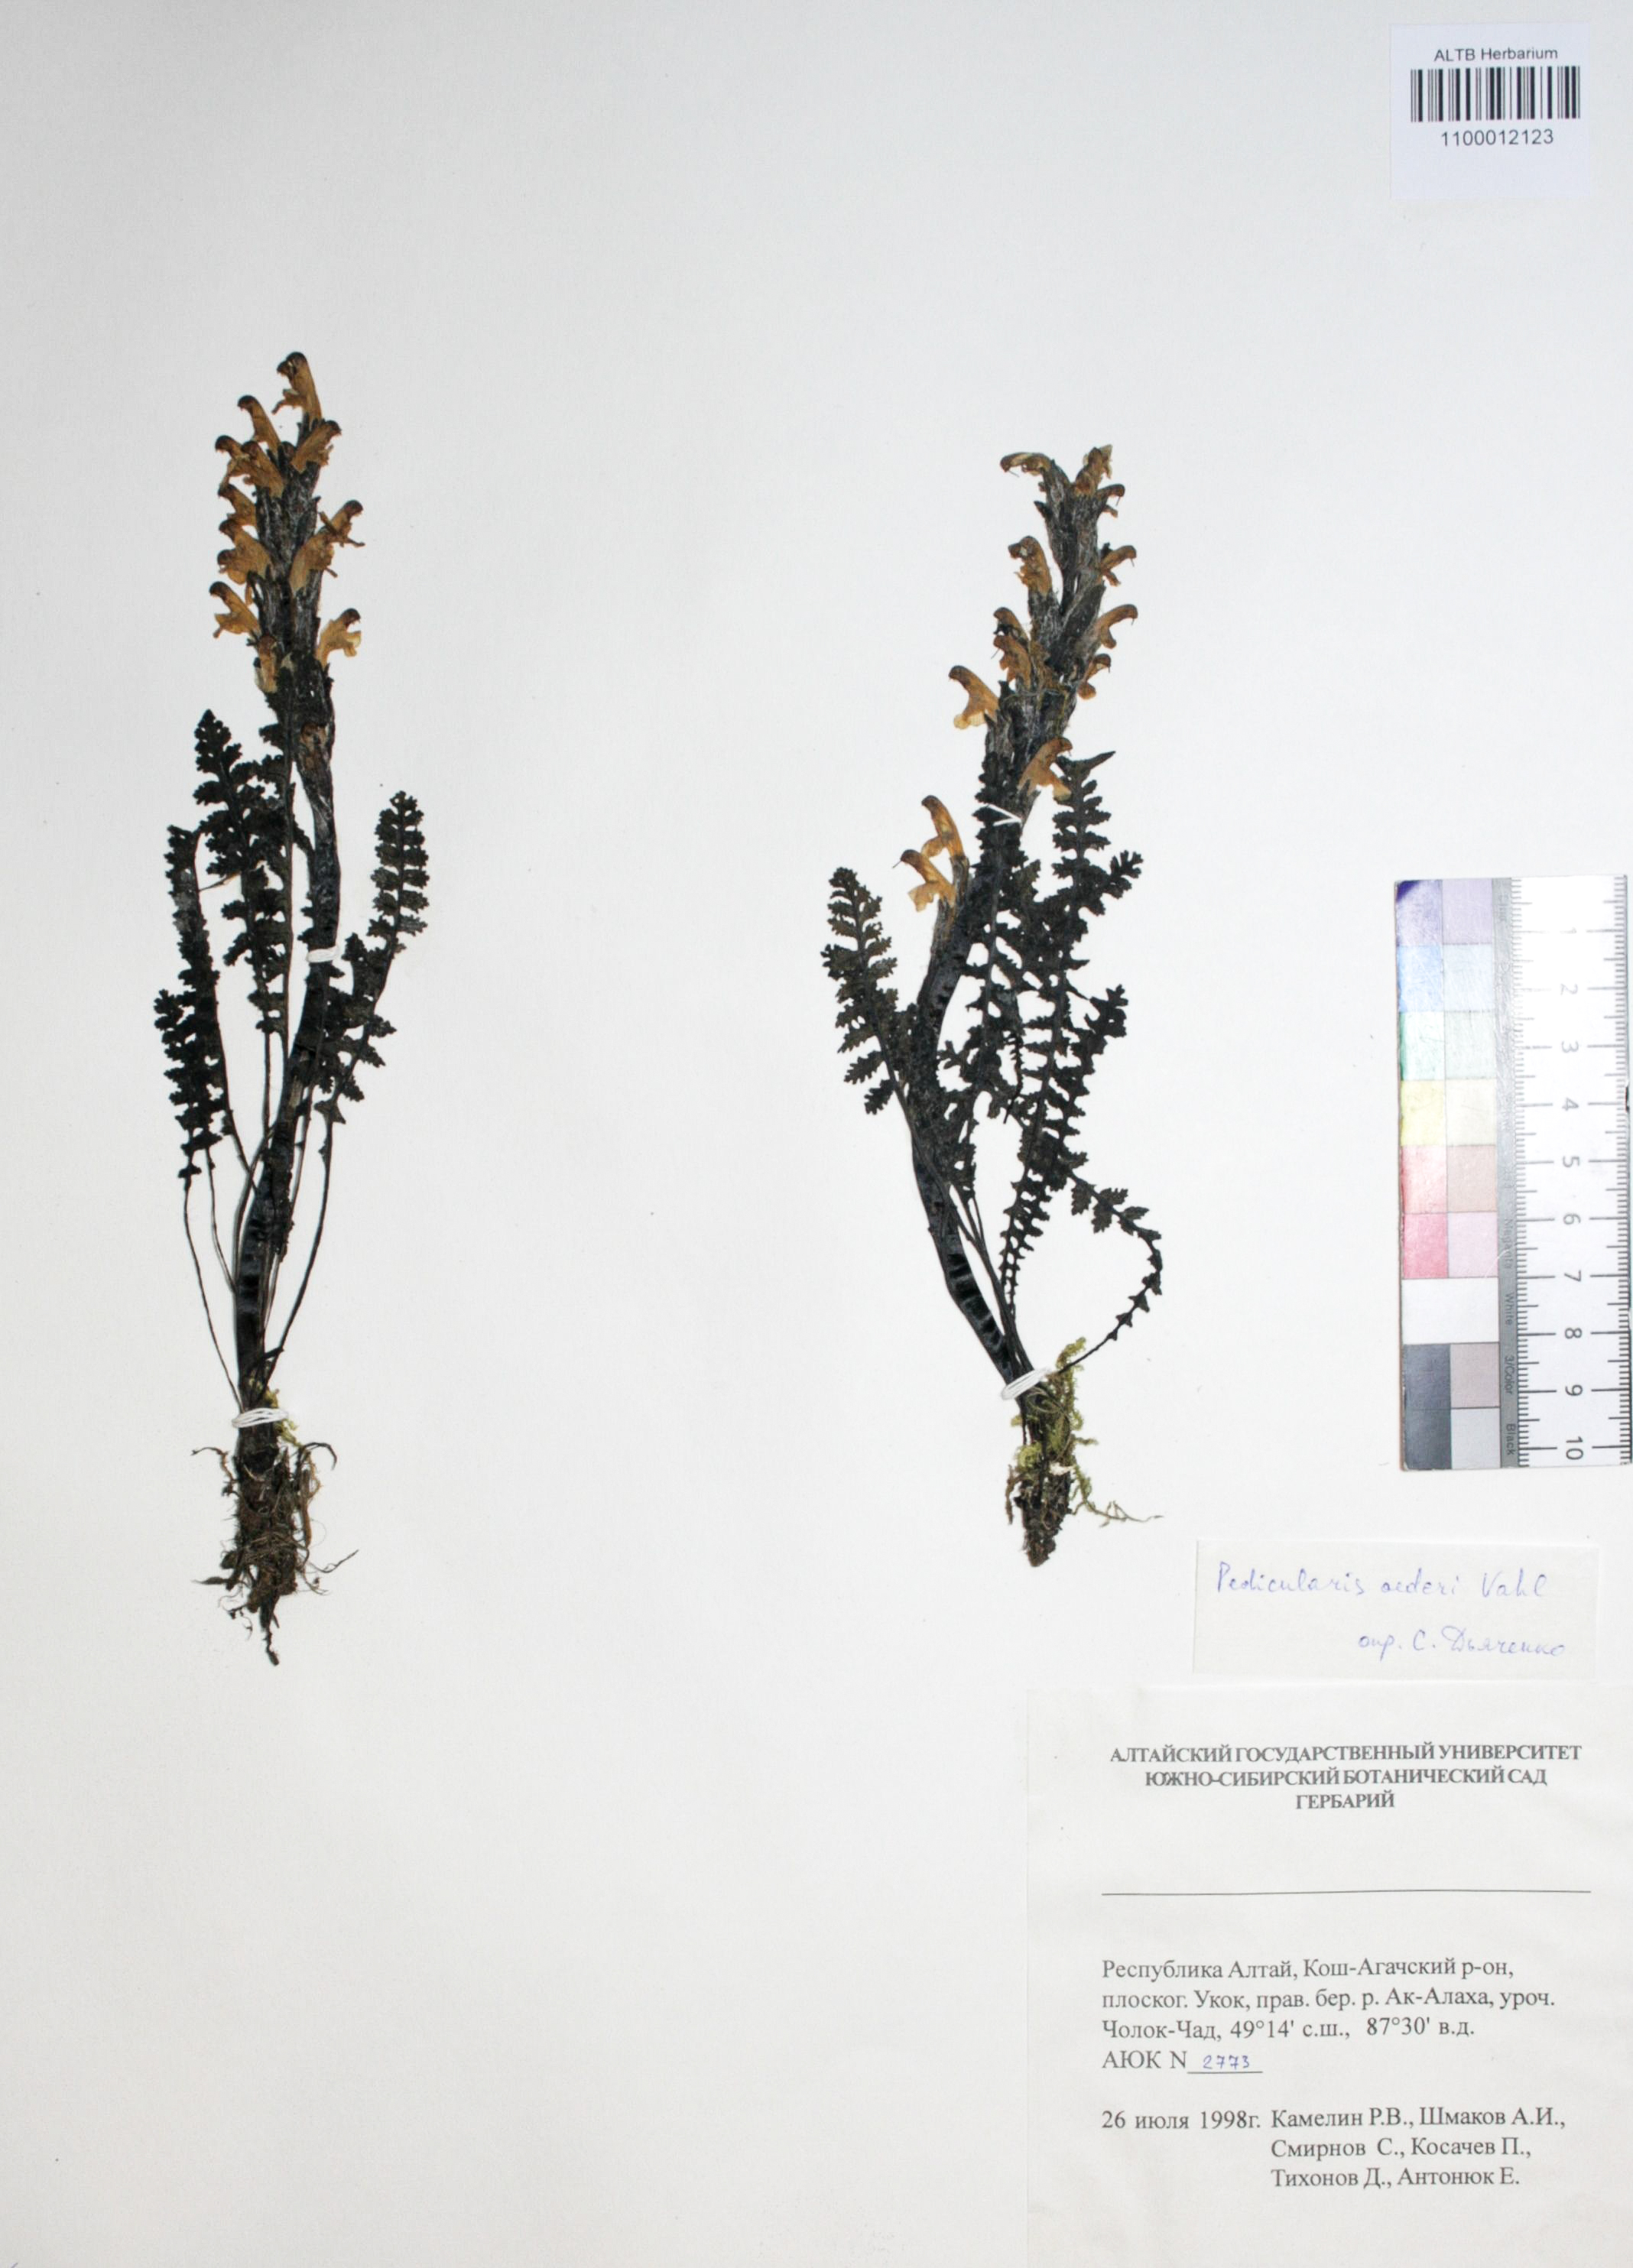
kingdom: Plantae
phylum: Tracheophyta
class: Magnoliopsida
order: Caryophyllales
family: Caryophyllaceae
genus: Silene
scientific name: Silene graminifolia
